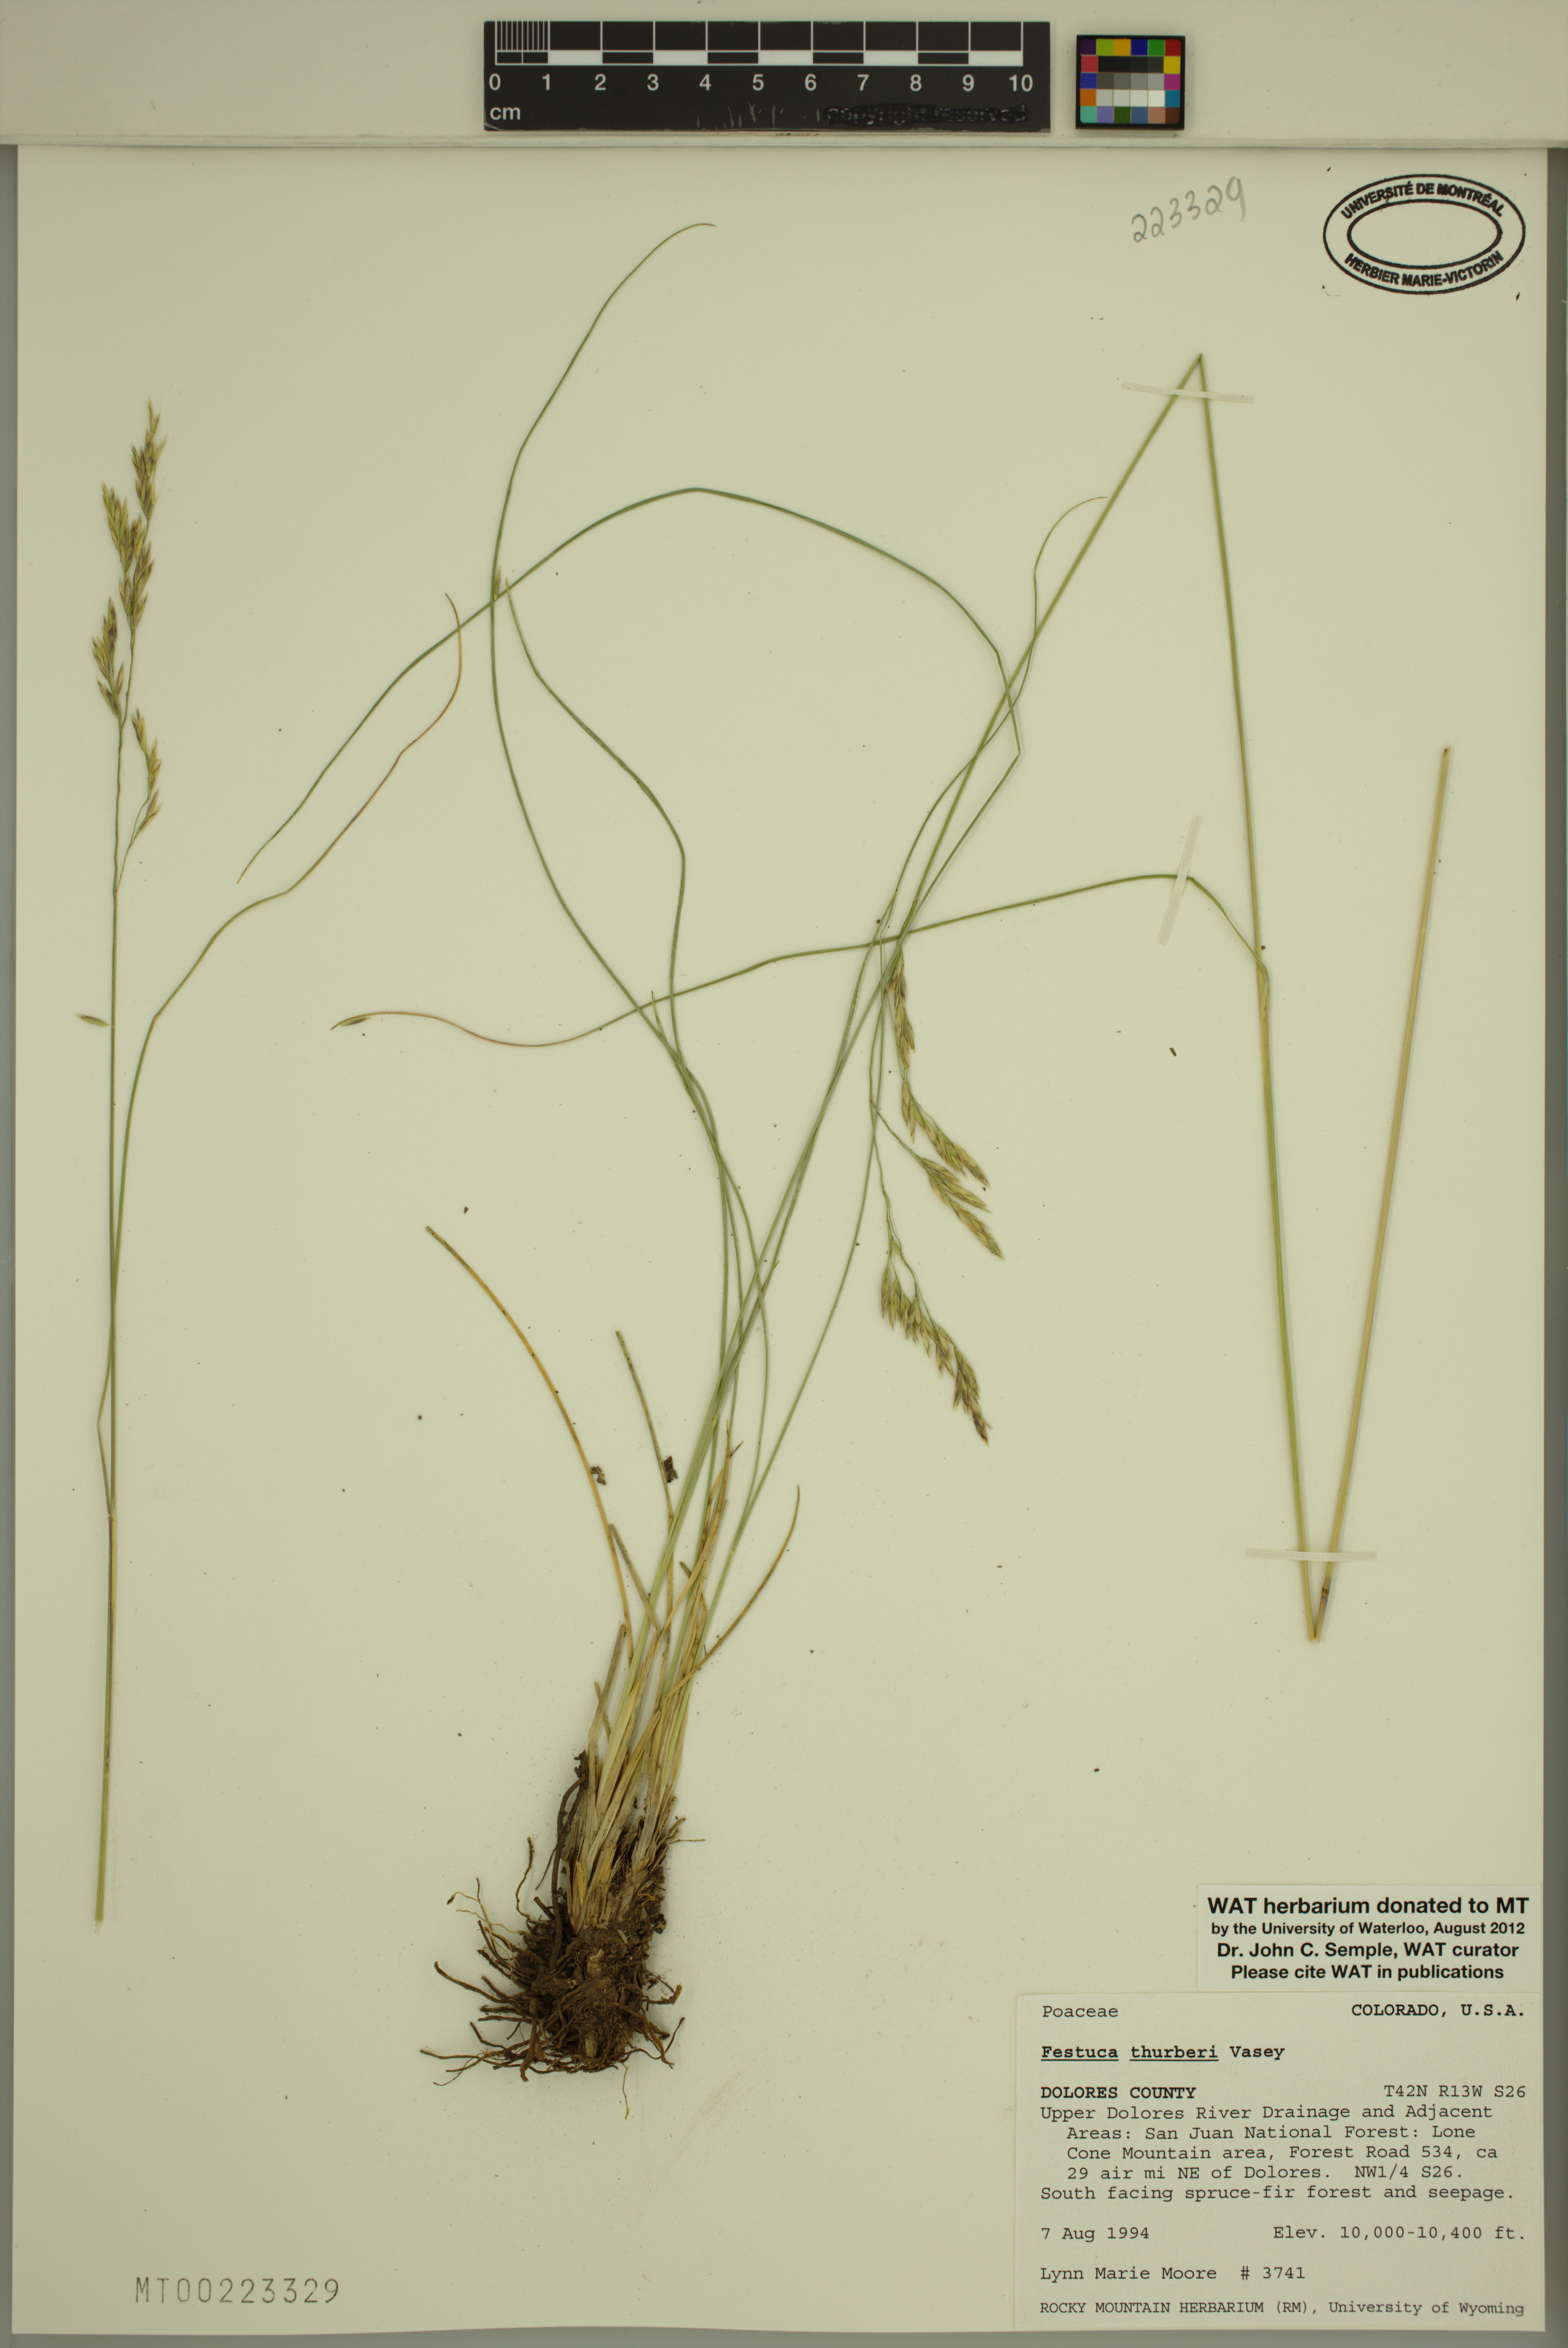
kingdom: Plantae
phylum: Tracheophyta
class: Liliopsida
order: Poales
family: Poaceae
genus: Festuca
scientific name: Festuca thurberi
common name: Thurber's fescue
